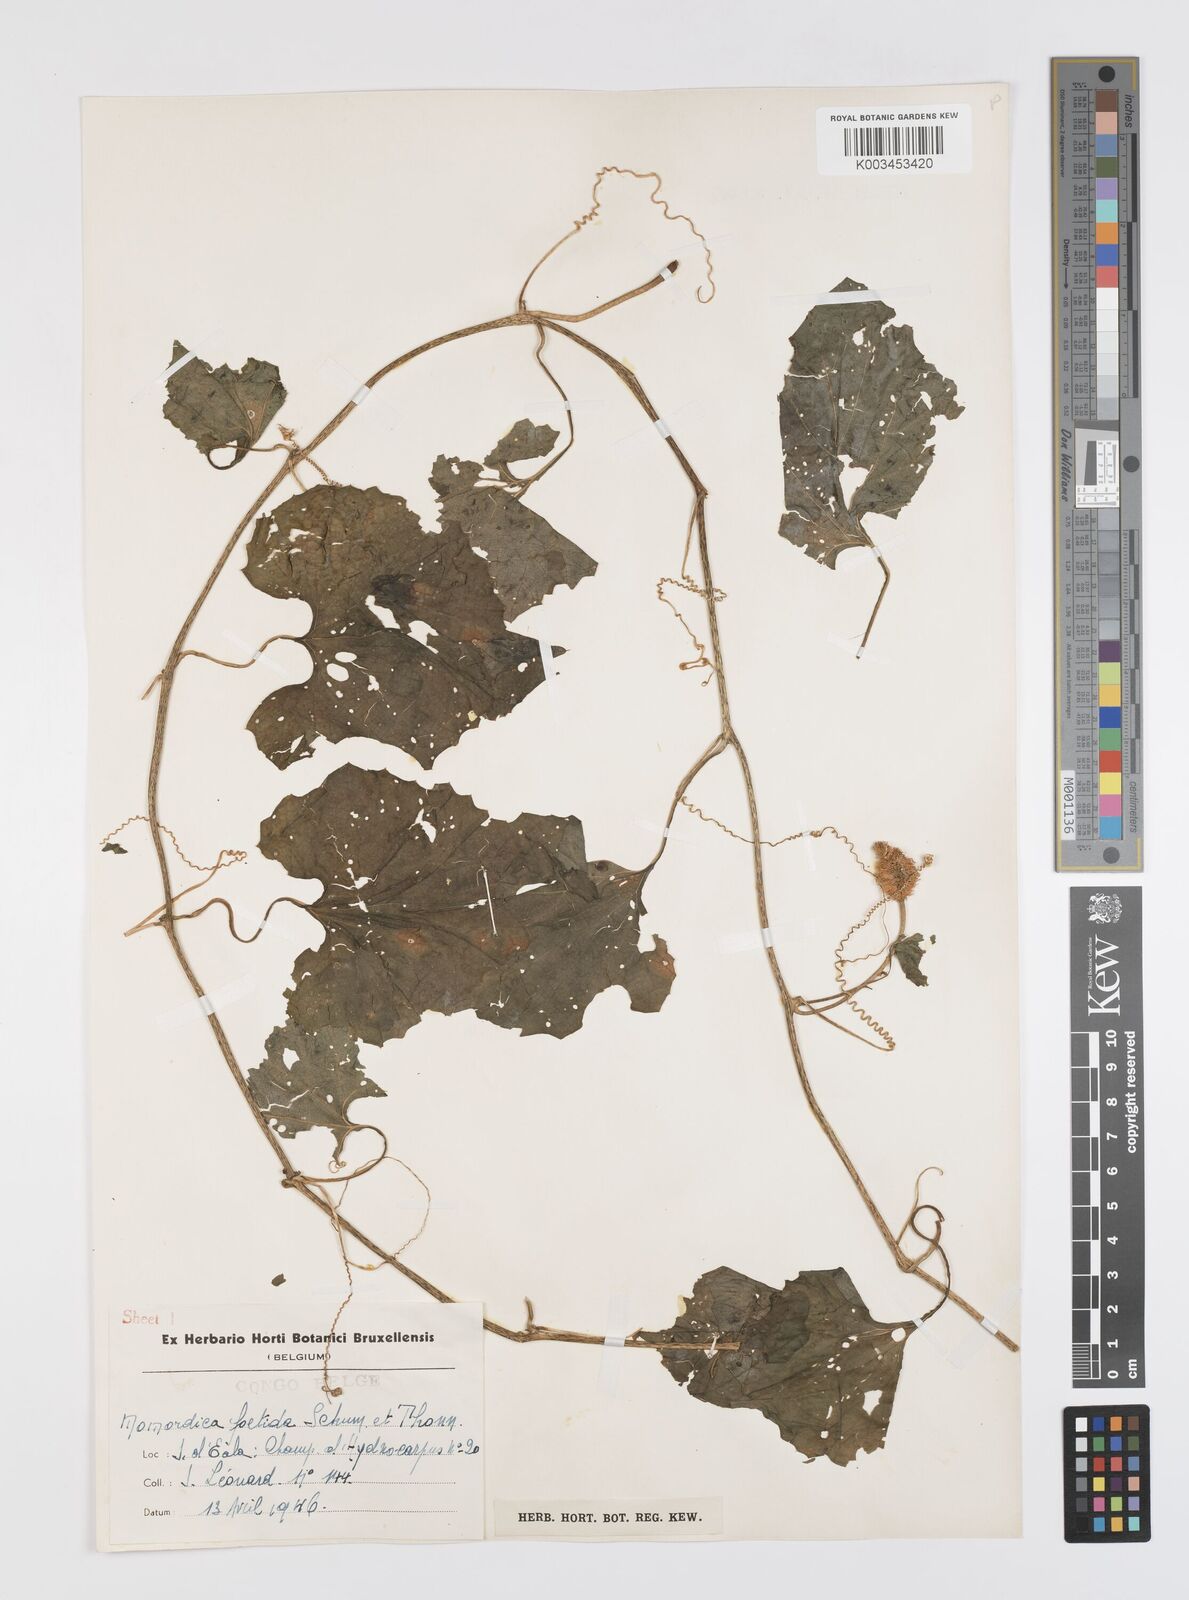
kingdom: Plantae
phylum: Tracheophyta
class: Magnoliopsida
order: Cucurbitales
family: Cucurbitaceae
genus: Momordica
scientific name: Momordica foetida
